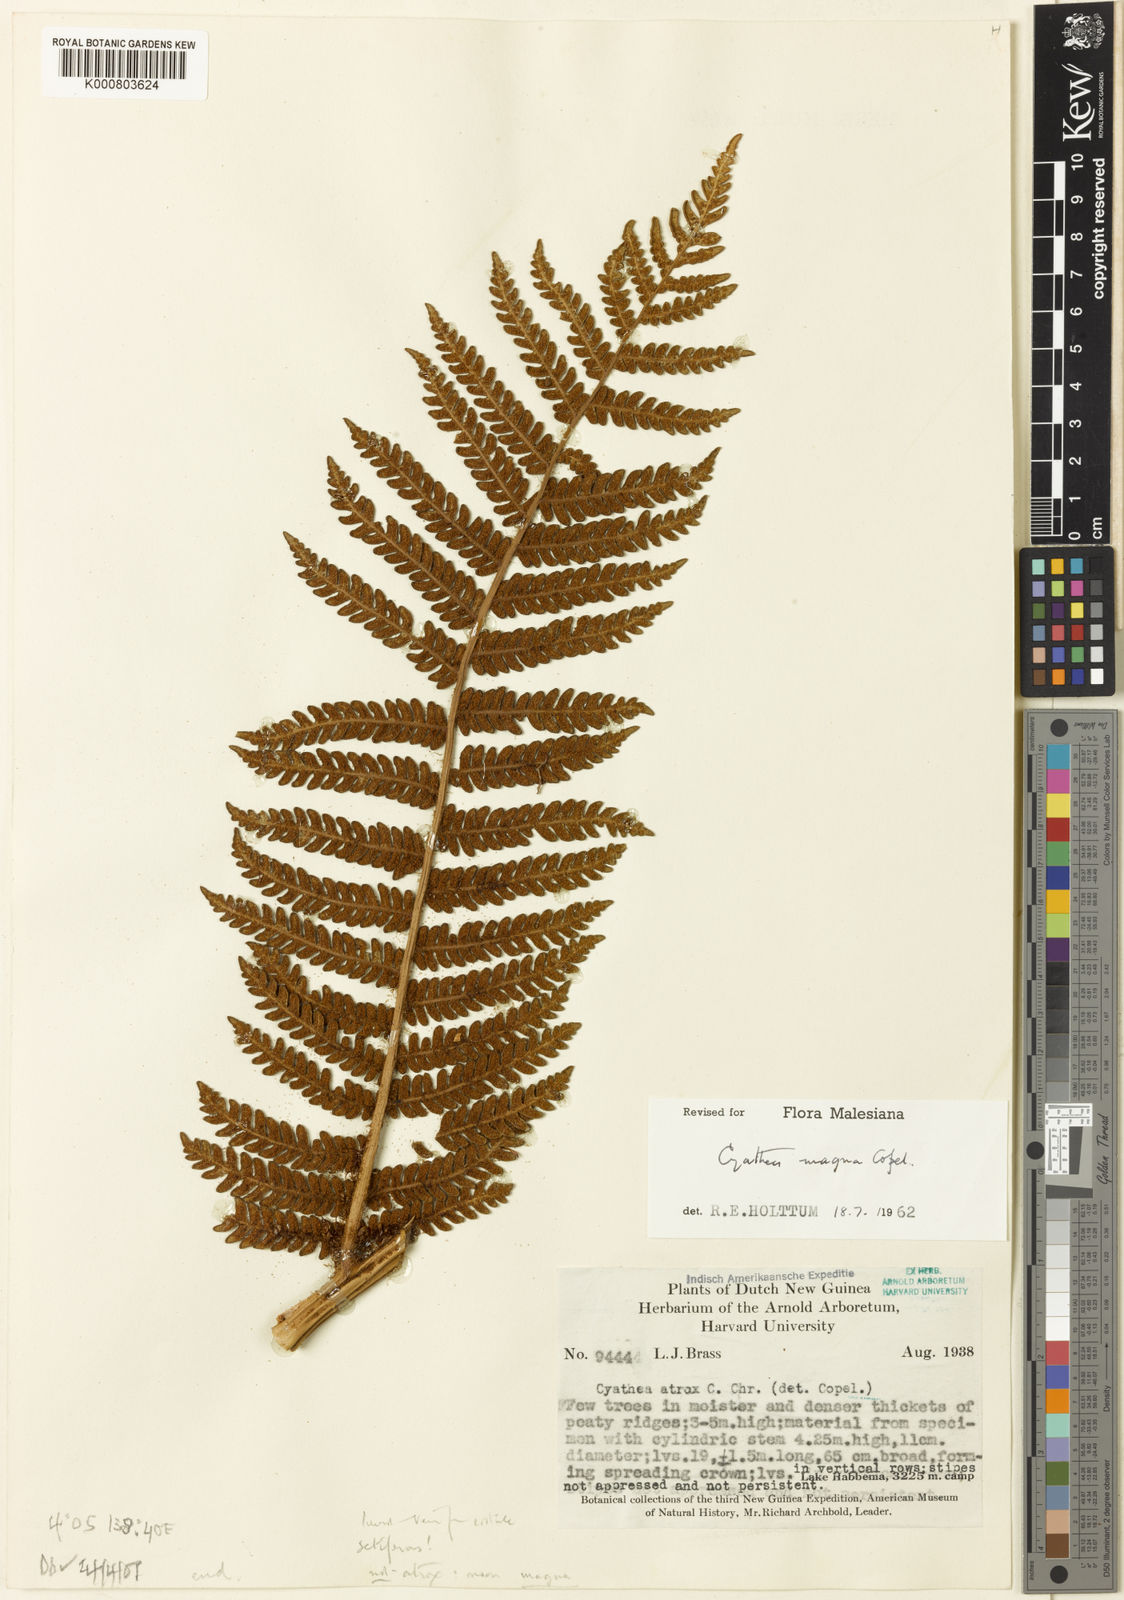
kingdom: Plantae
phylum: Tracheophyta
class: Polypodiopsida
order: Cyatheales
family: Cyatheaceae
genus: Sphaeropteris
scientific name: Sphaeropteris magna
